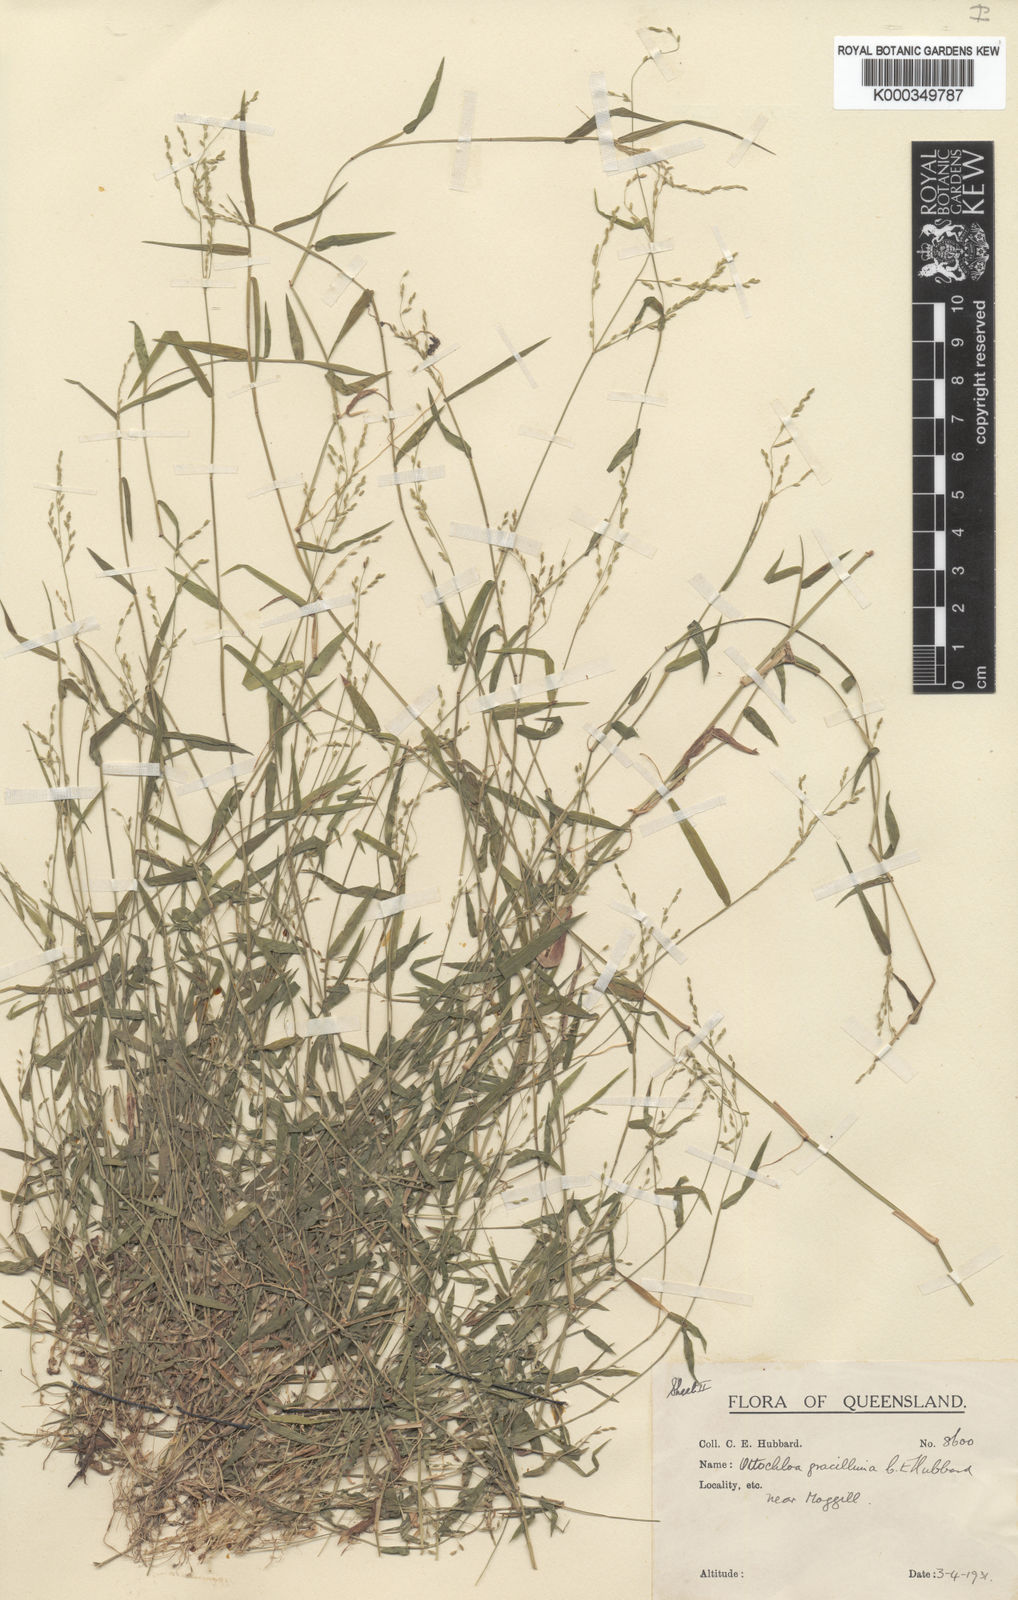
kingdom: Plantae
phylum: Tracheophyta
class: Liliopsida
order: Poales
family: Poaceae
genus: Ottochloa
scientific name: Ottochloa gracillima
